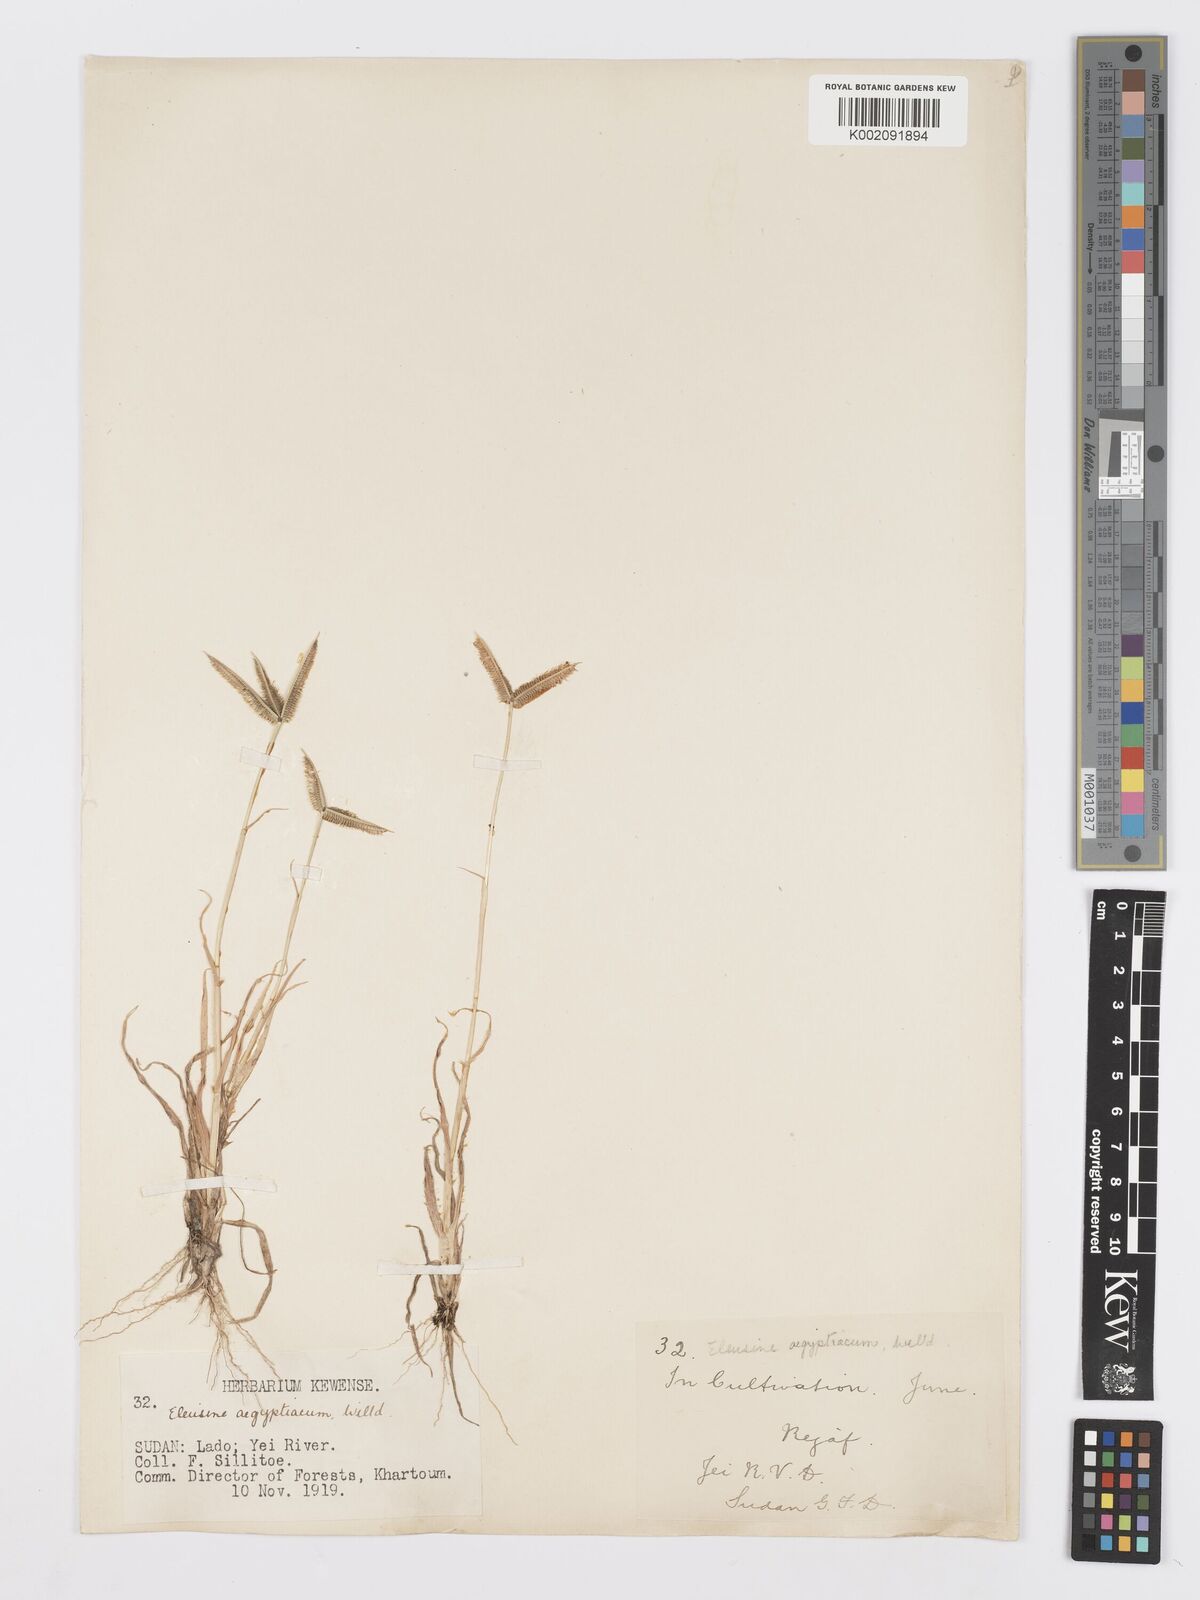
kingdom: Plantae
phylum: Tracheophyta
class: Liliopsida
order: Poales
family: Poaceae
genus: Dactyloctenium
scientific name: Dactyloctenium aegyptium
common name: Egyptian grass
